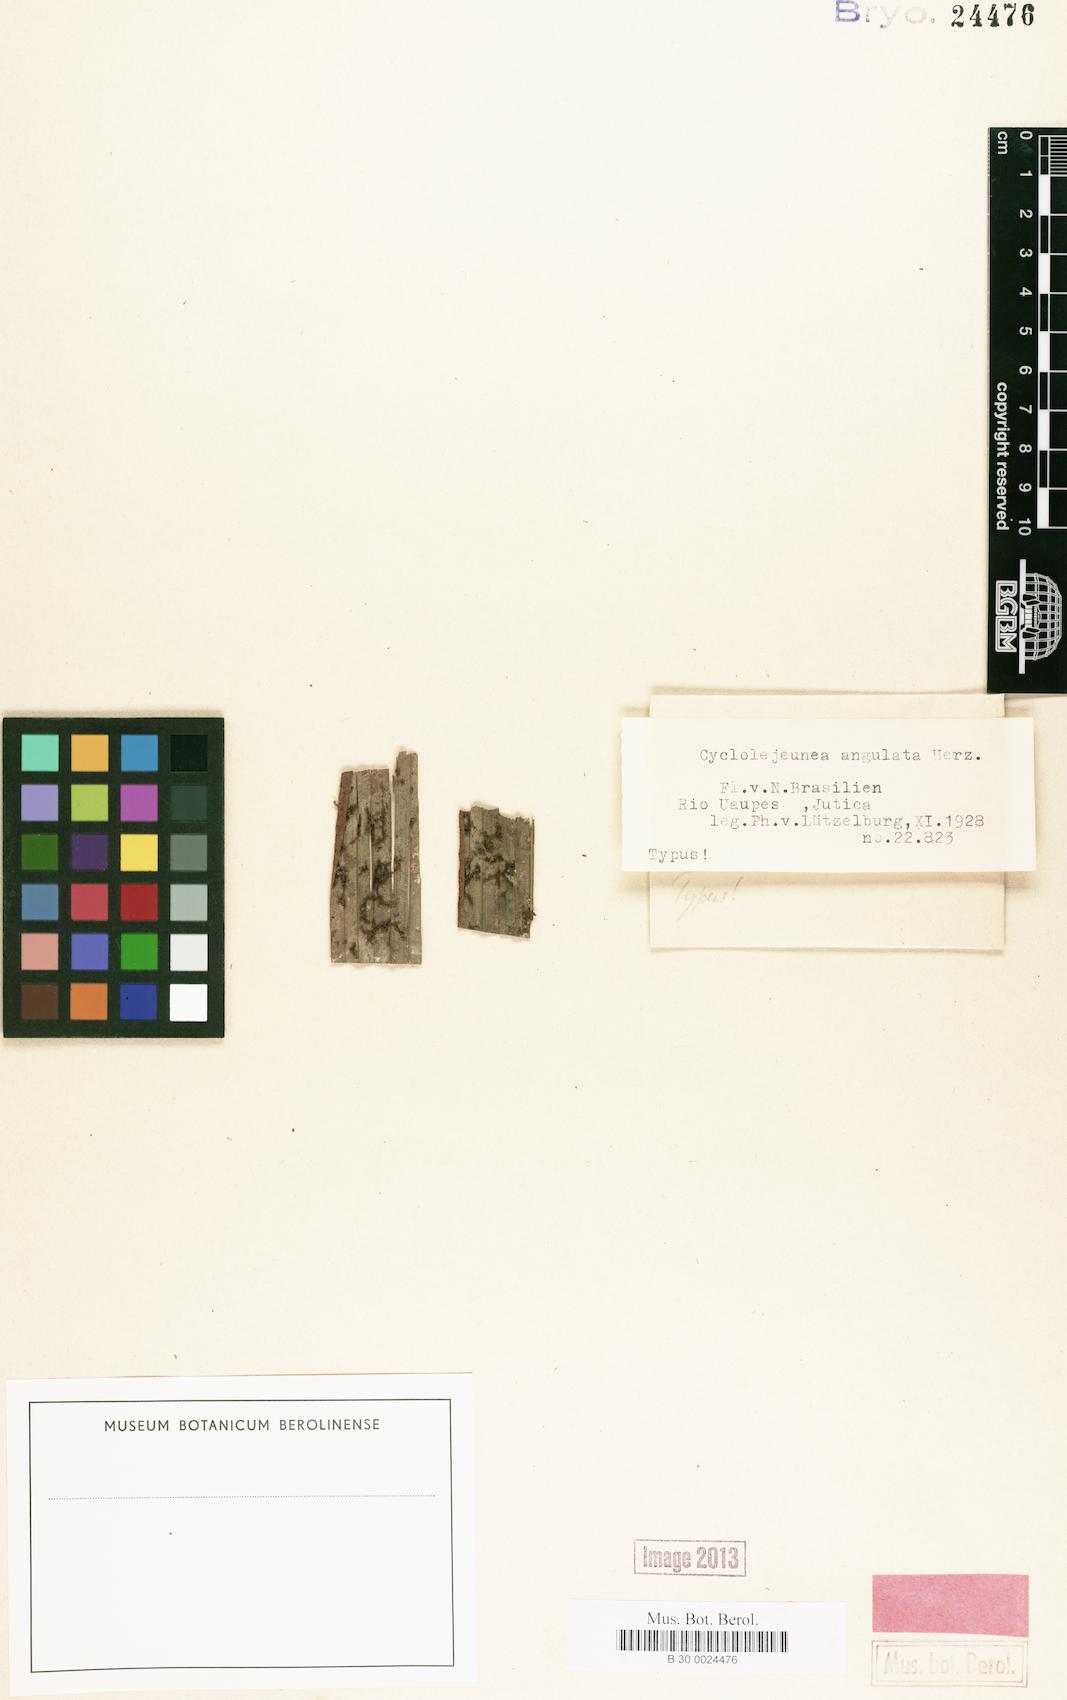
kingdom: Plantae
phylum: Marchantiophyta
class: Jungermanniopsida
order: Porellales
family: Lejeuneaceae
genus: Cyclolejeunea
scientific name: Cyclolejeunea foliorum
